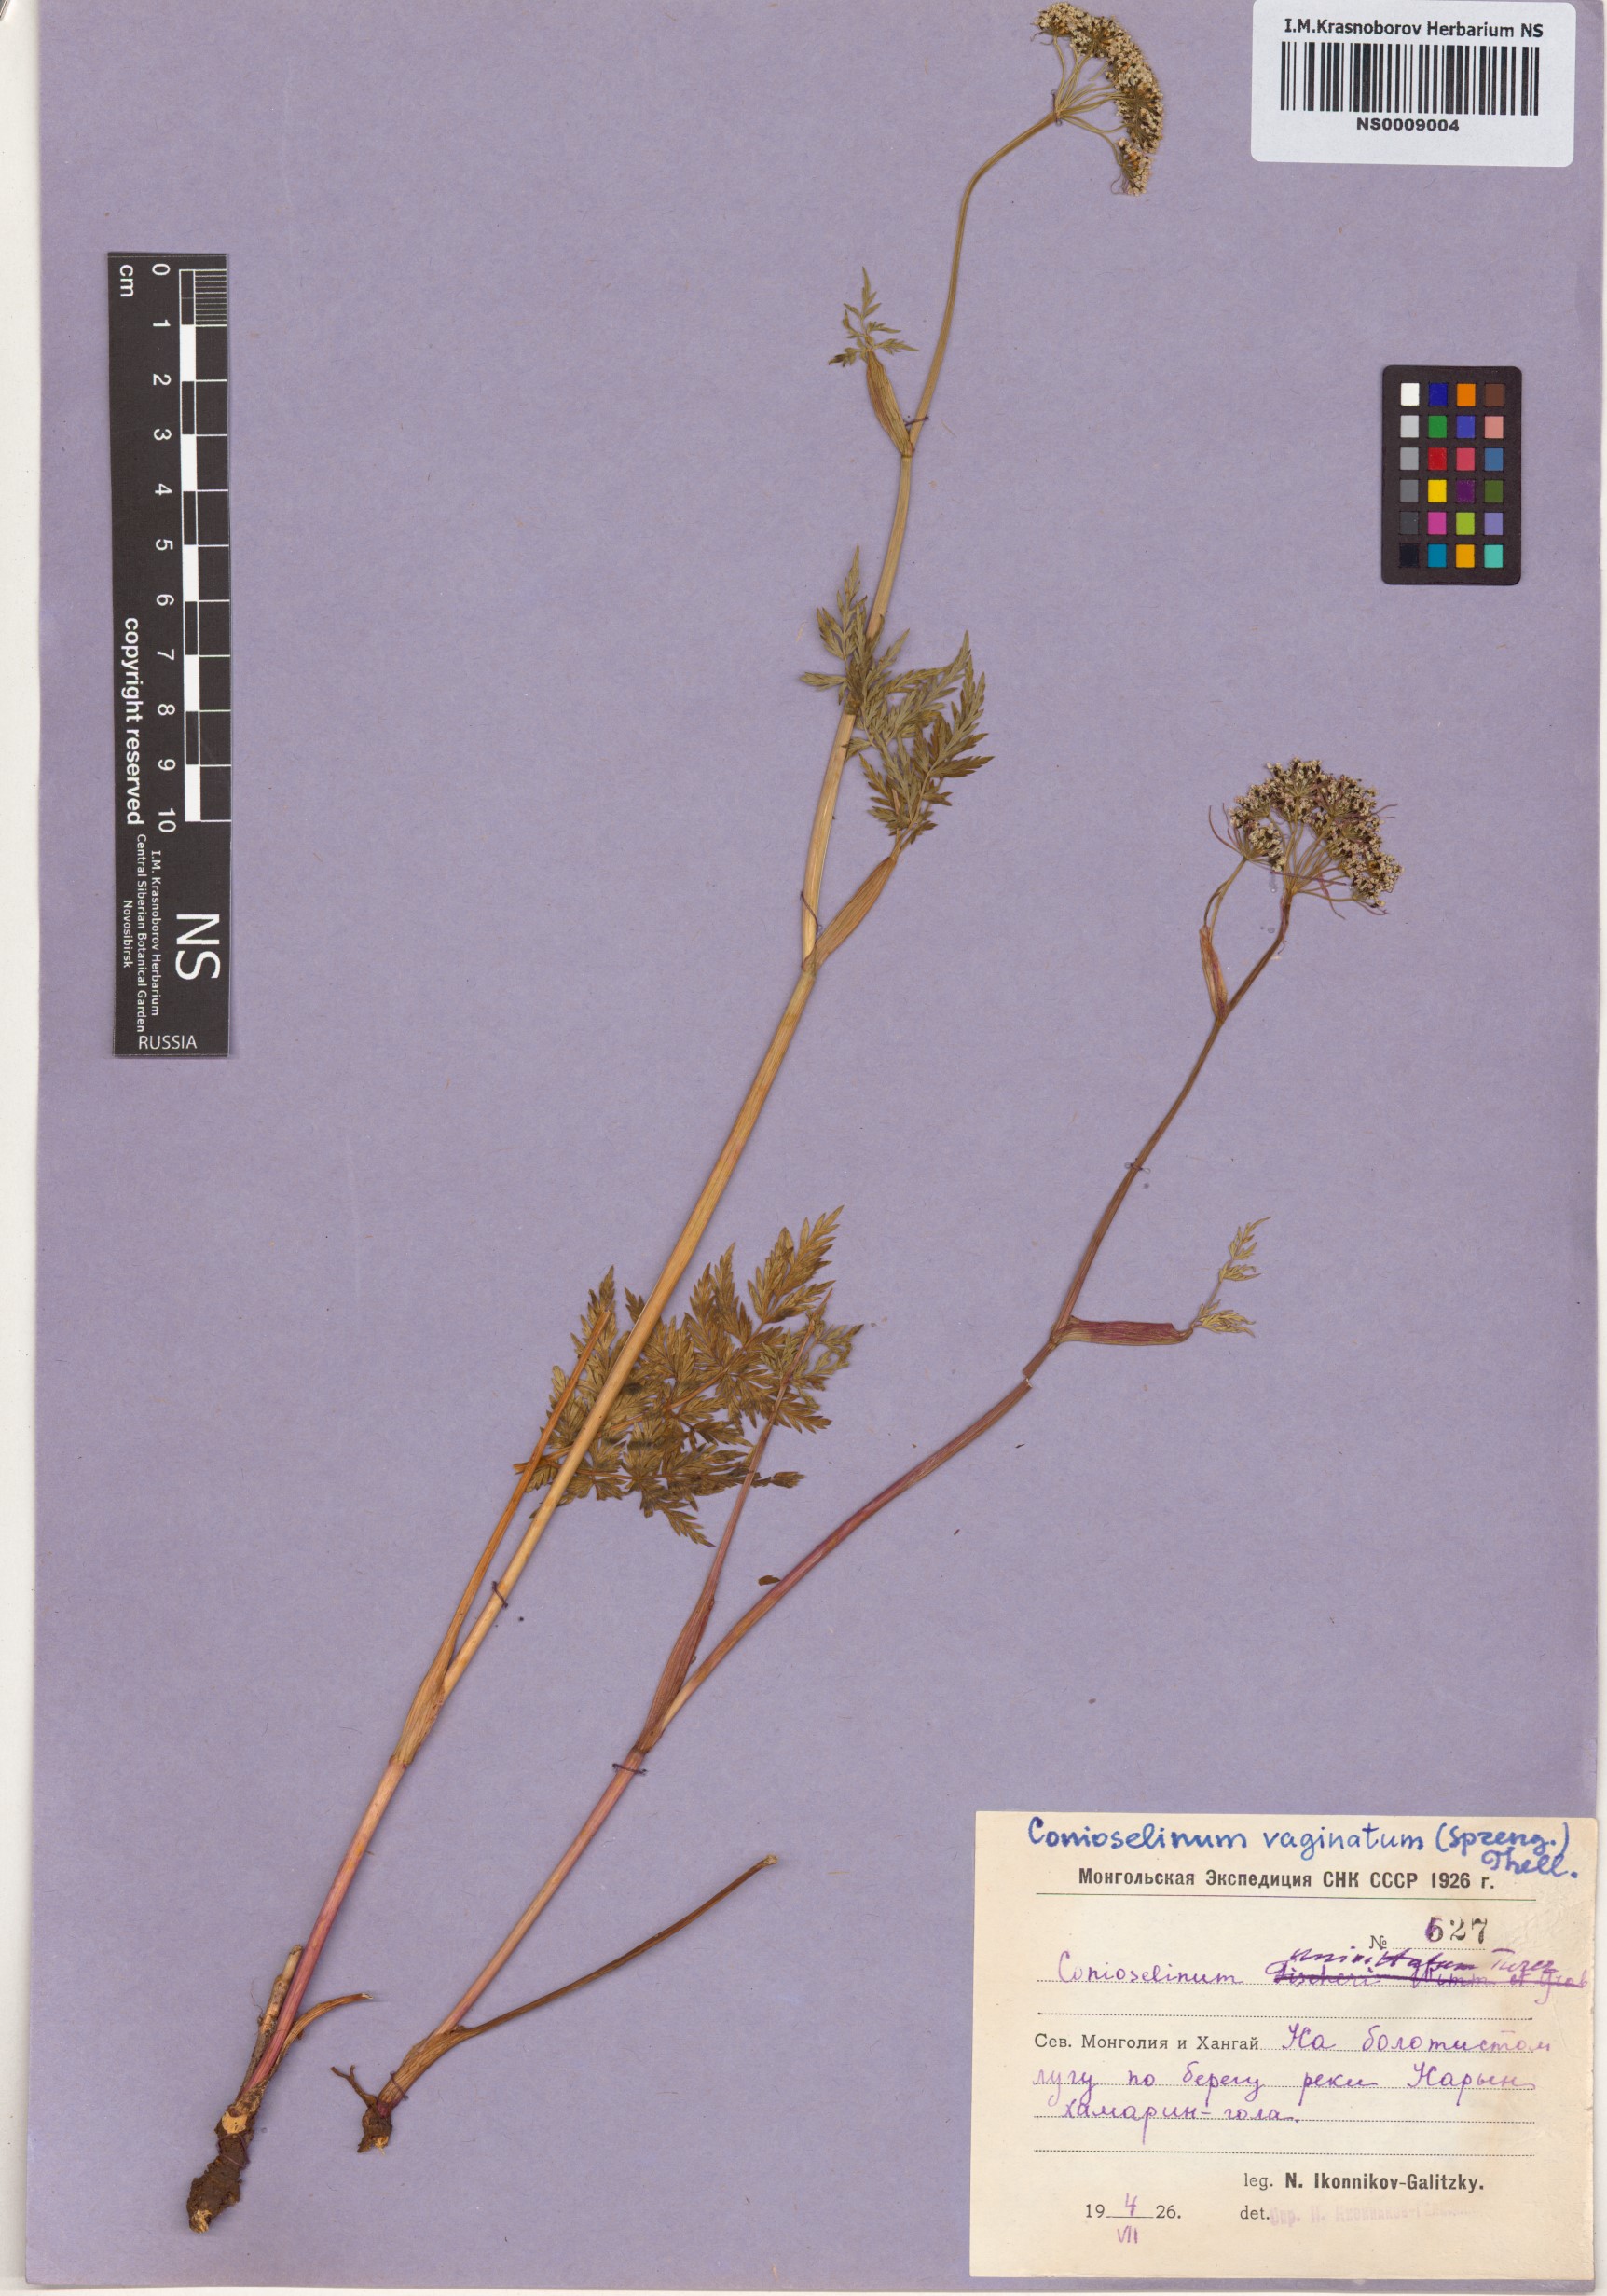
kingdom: Plantae
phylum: Tracheophyta
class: Magnoliopsida
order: Apiales
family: Apiaceae
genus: Seseli
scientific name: Seseli condensatum
